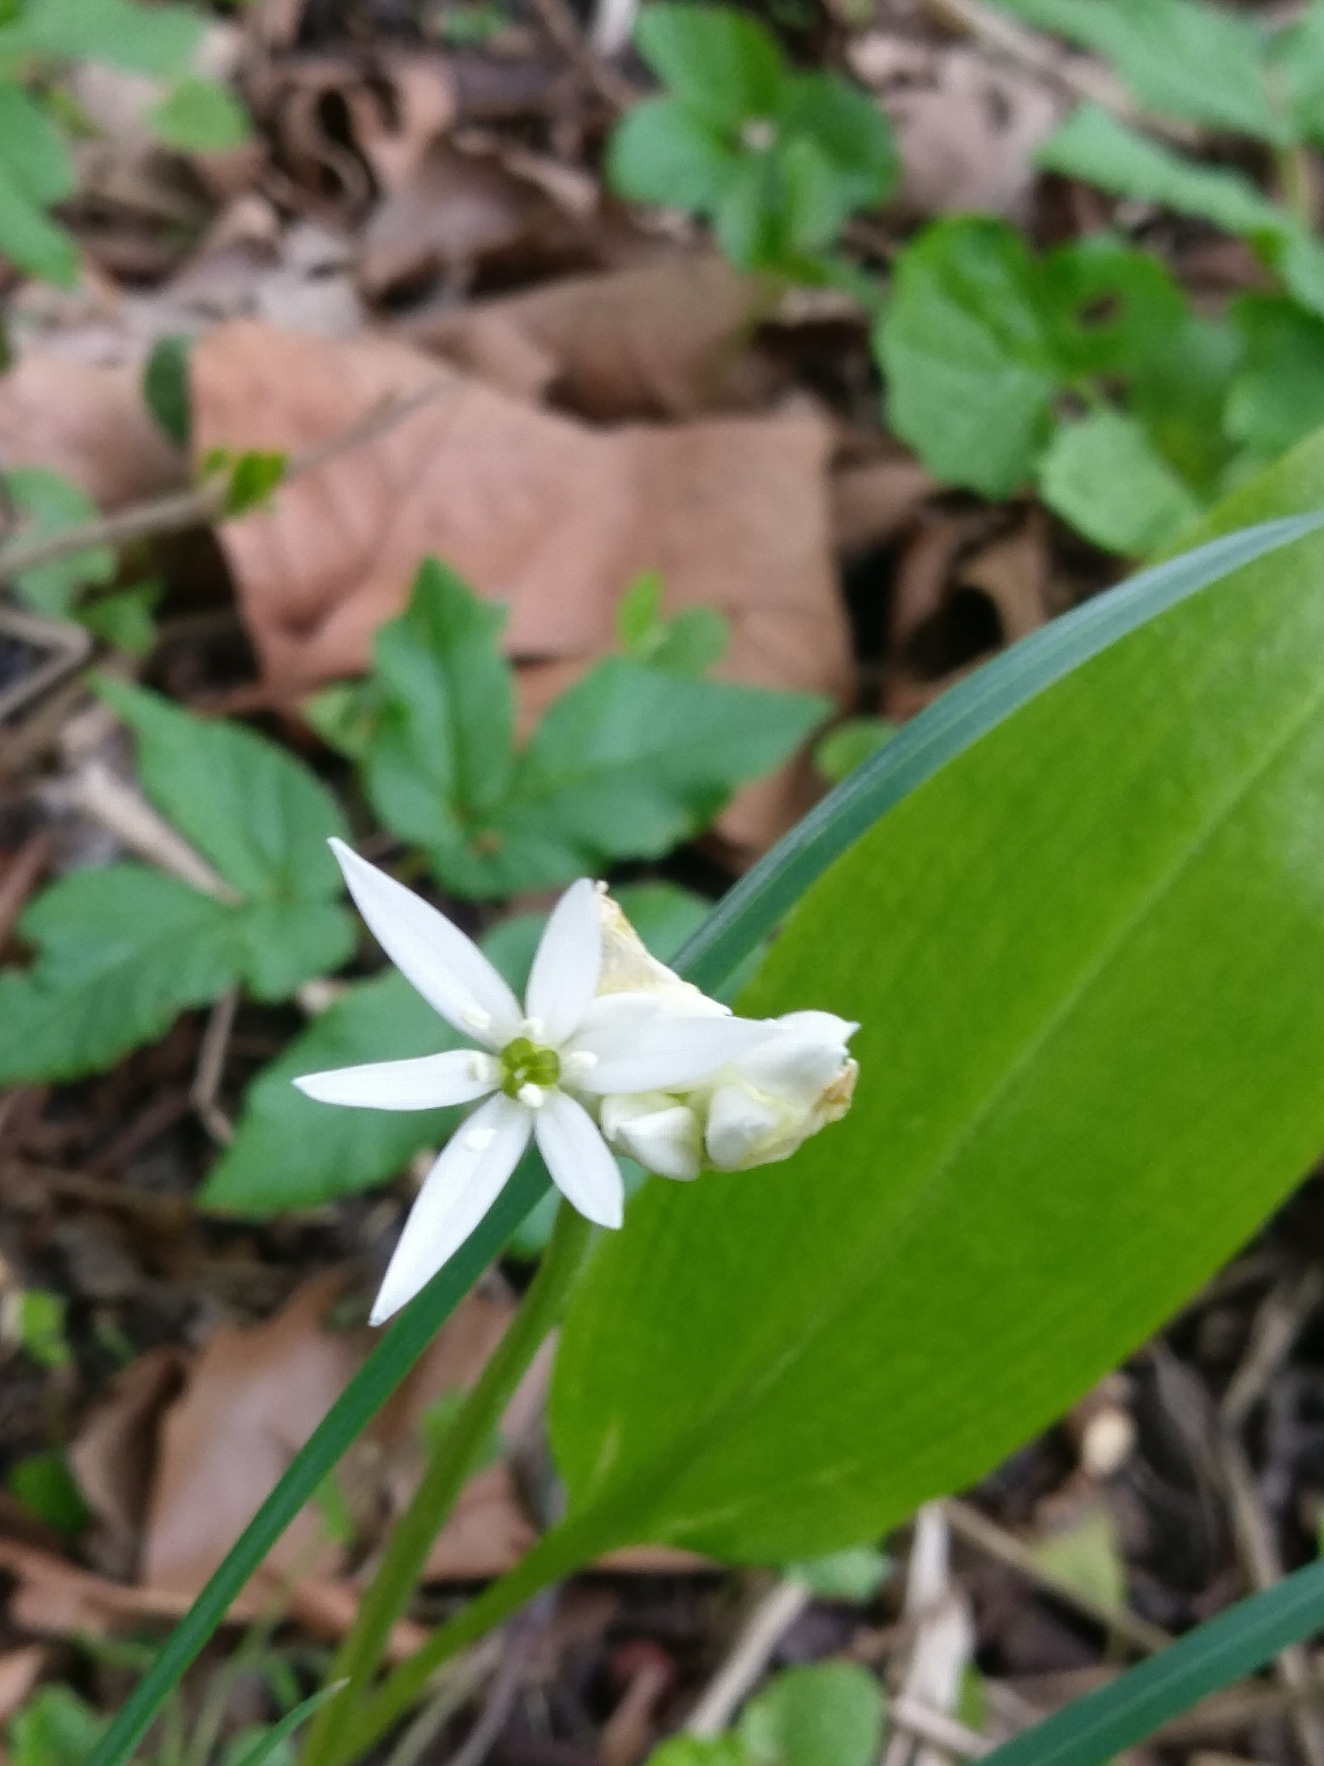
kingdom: Plantae
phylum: Tracheophyta
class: Liliopsida
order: Asparagales
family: Amaryllidaceae
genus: Allium
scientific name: Allium ursinum
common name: Rams-løg
